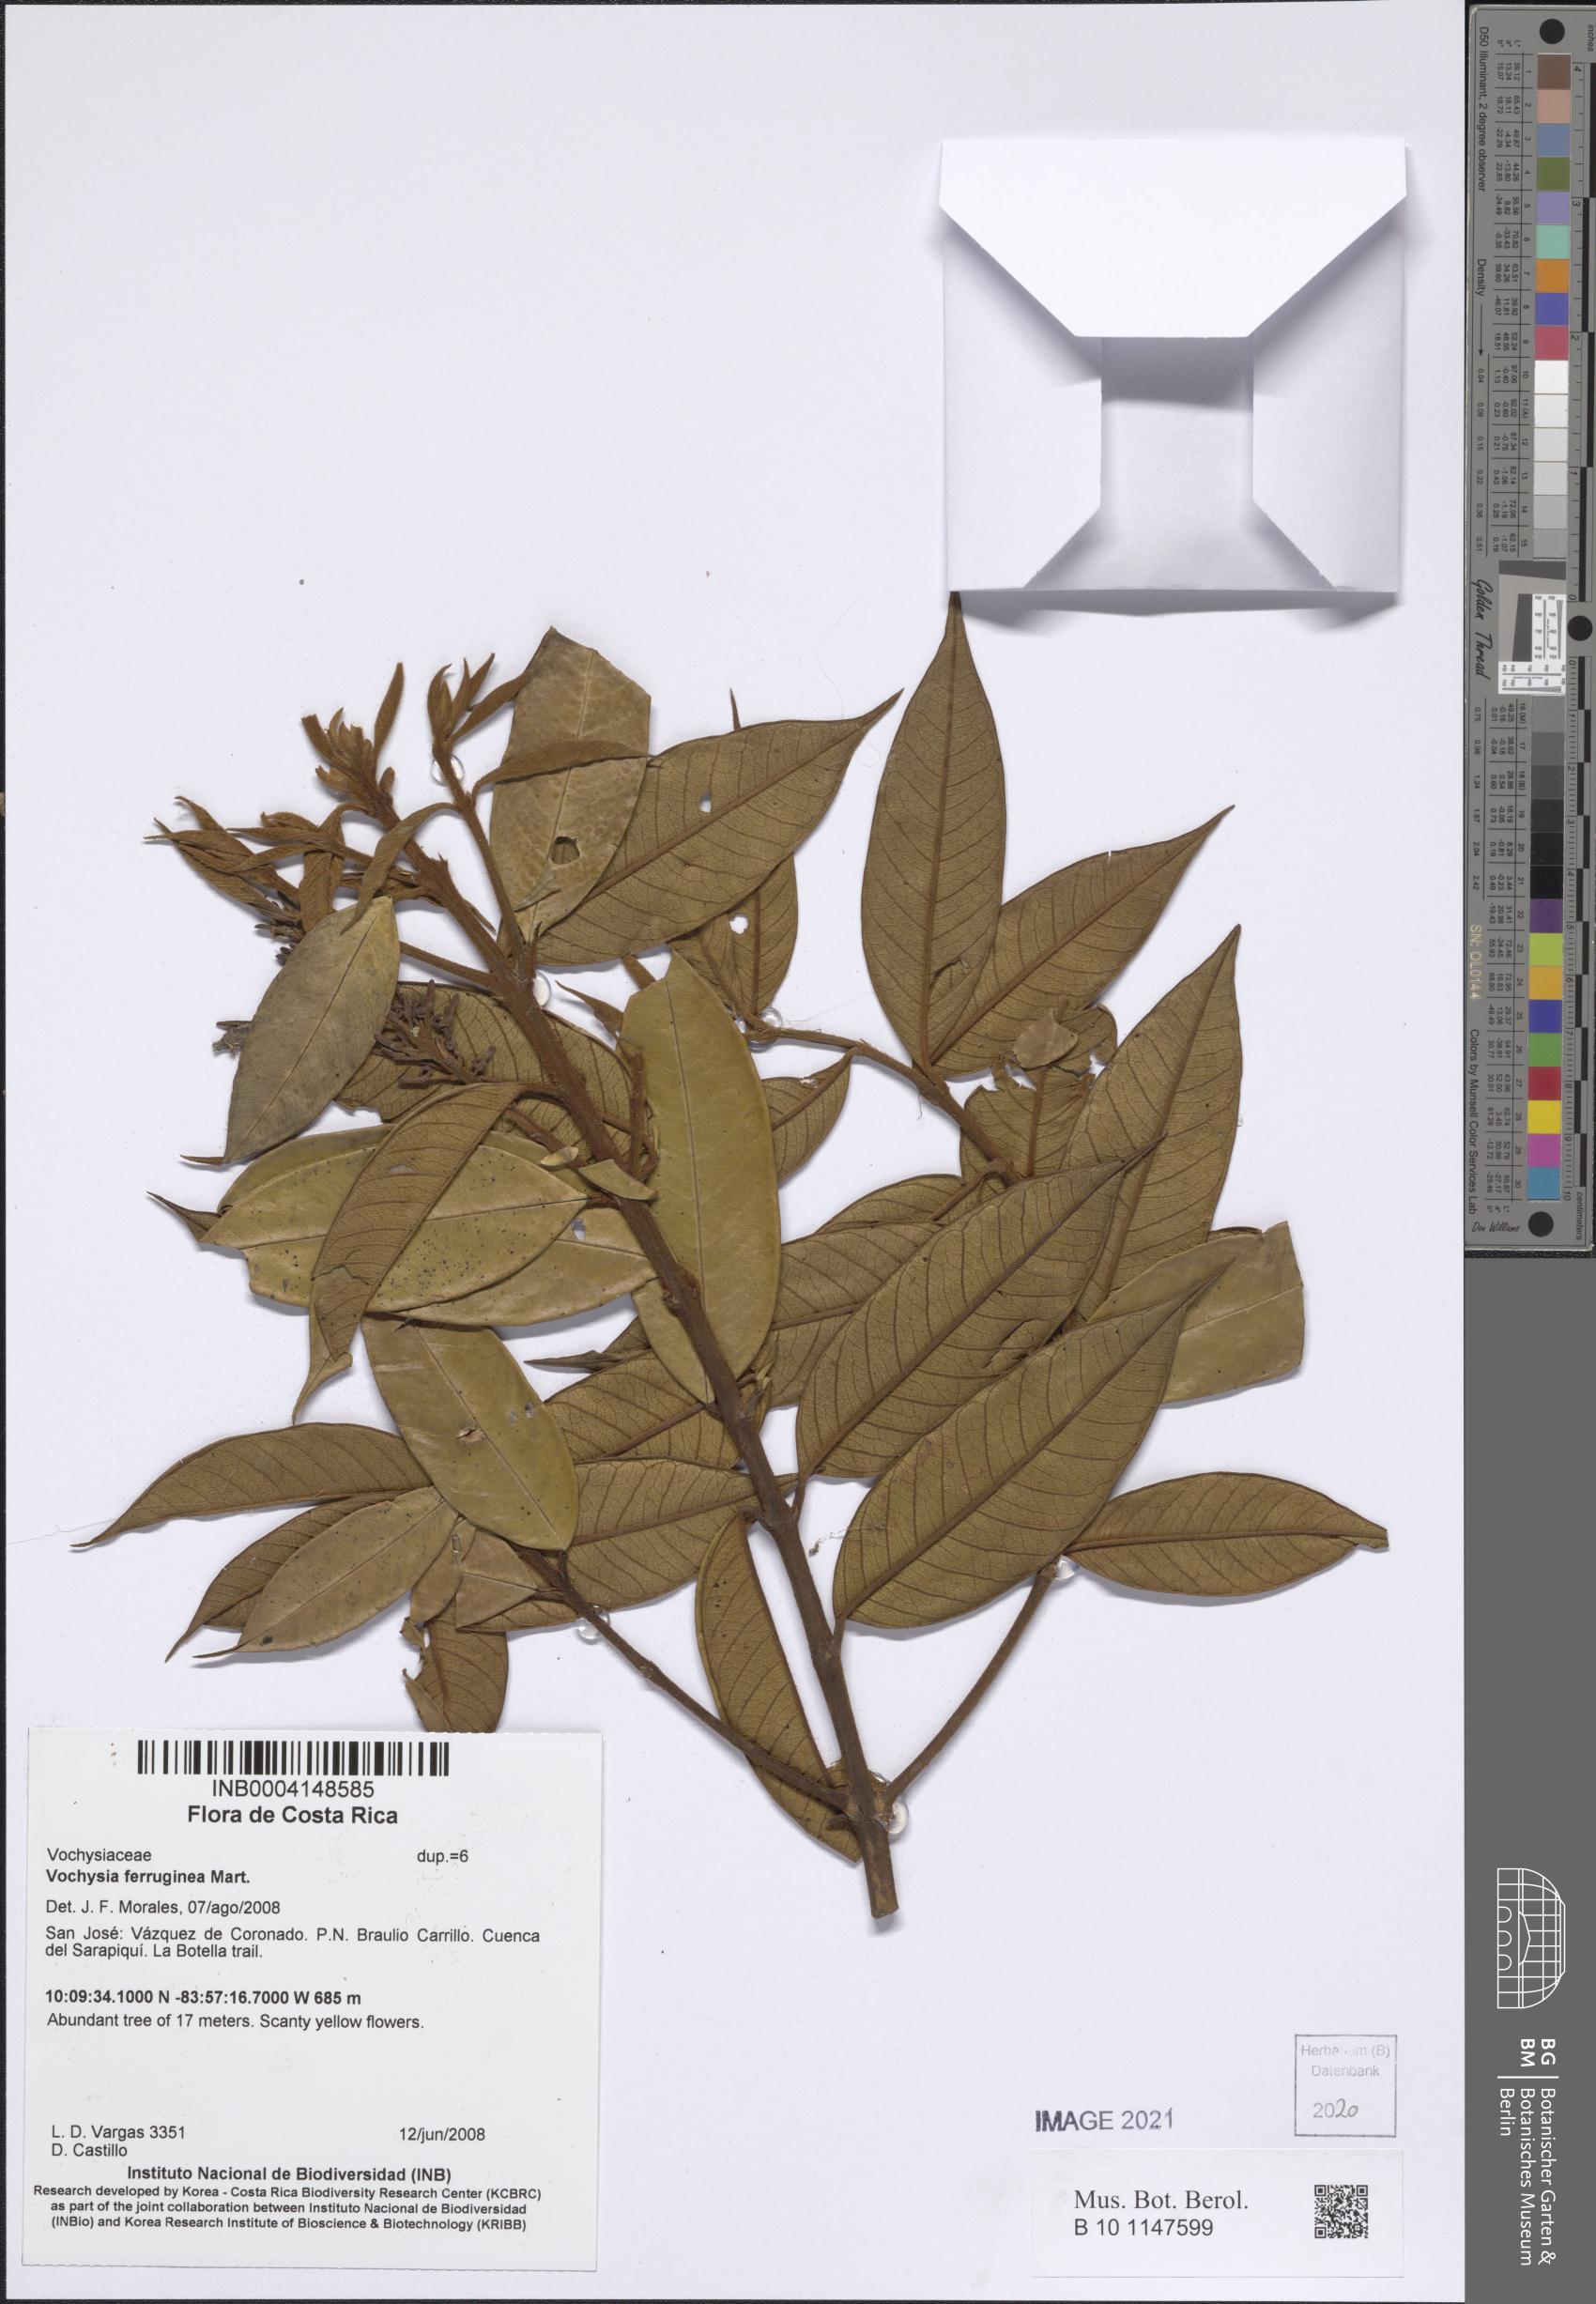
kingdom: Plantae
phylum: Tracheophyta
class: Magnoliopsida
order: Myrtales
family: Vochysiaceae
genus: Vochysia
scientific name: Vochysia ferruginea
